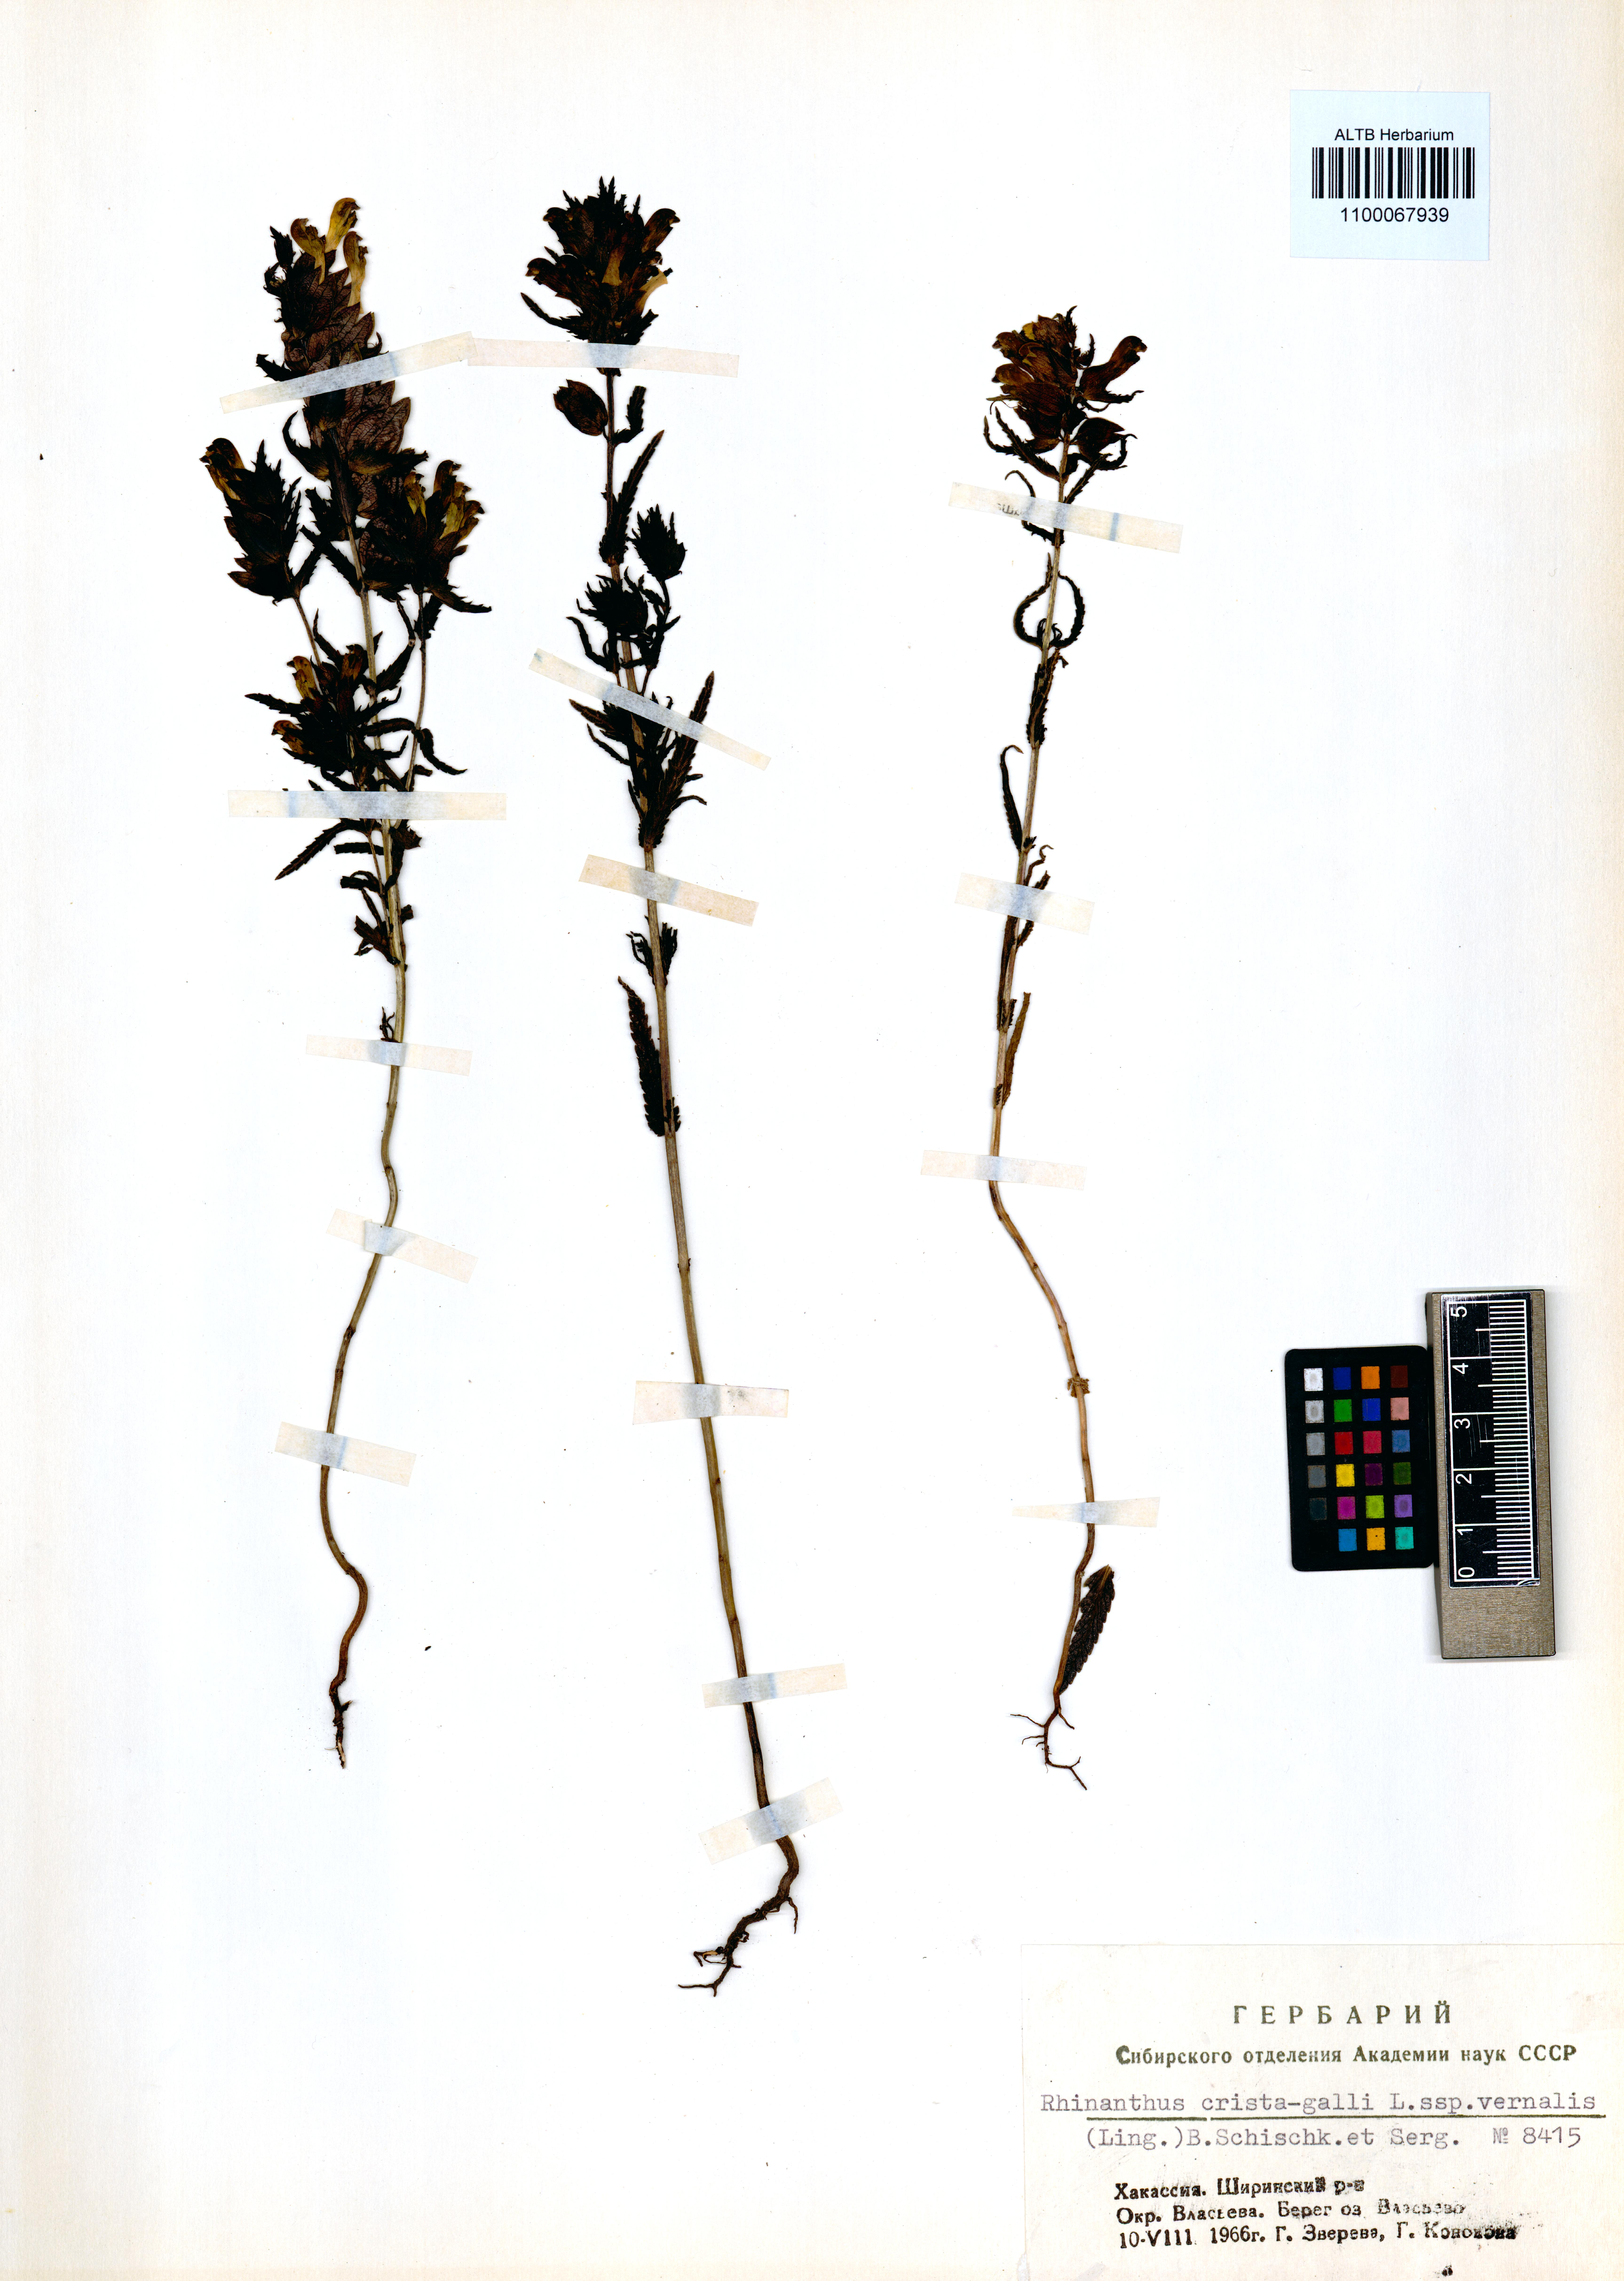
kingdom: Plantae
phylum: Tracheophyta
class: Magnoliopsida
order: Lamiales
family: Orobanchaceae
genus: Rhinanthus
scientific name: Rhinanthus minor
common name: Yellow-rattle
